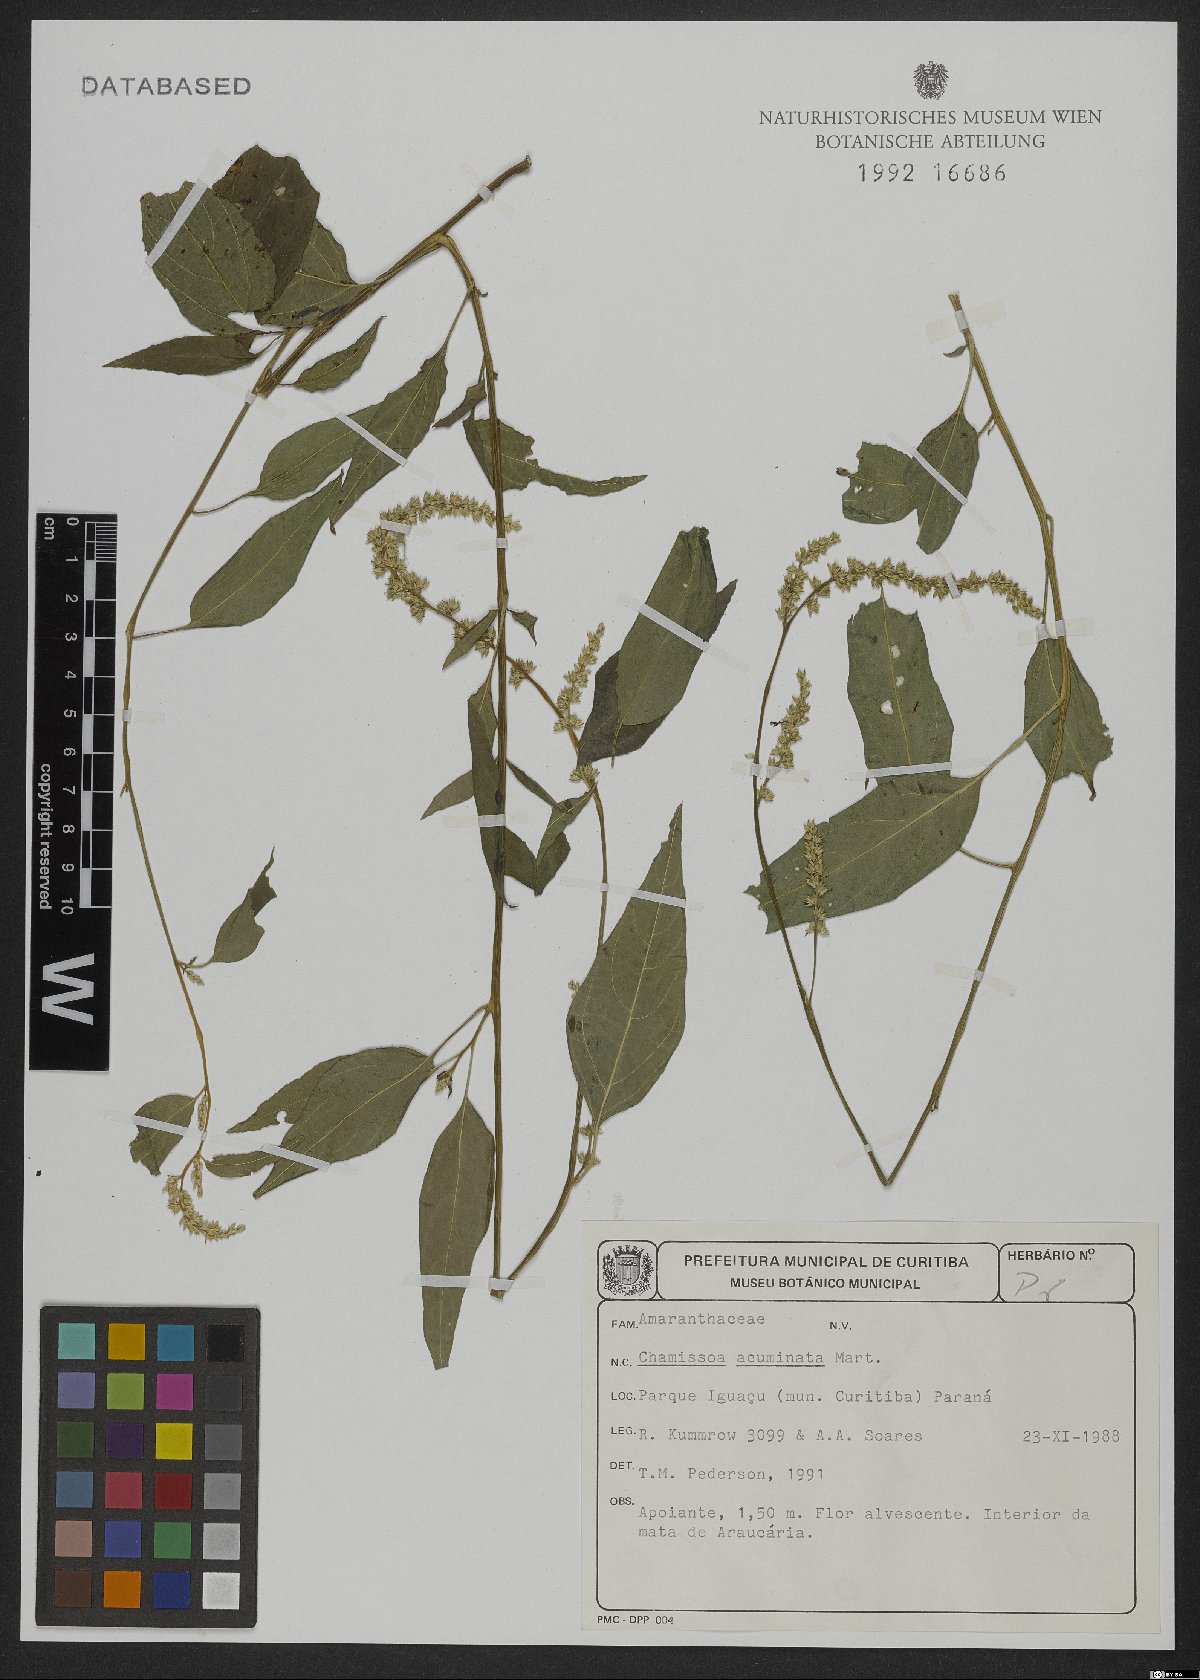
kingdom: Plantae
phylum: Tracheophyta
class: Magnoliopsida
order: Caryophyllales
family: Amaranthaceae
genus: Chamissoa
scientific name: Chamissoa acuminata
